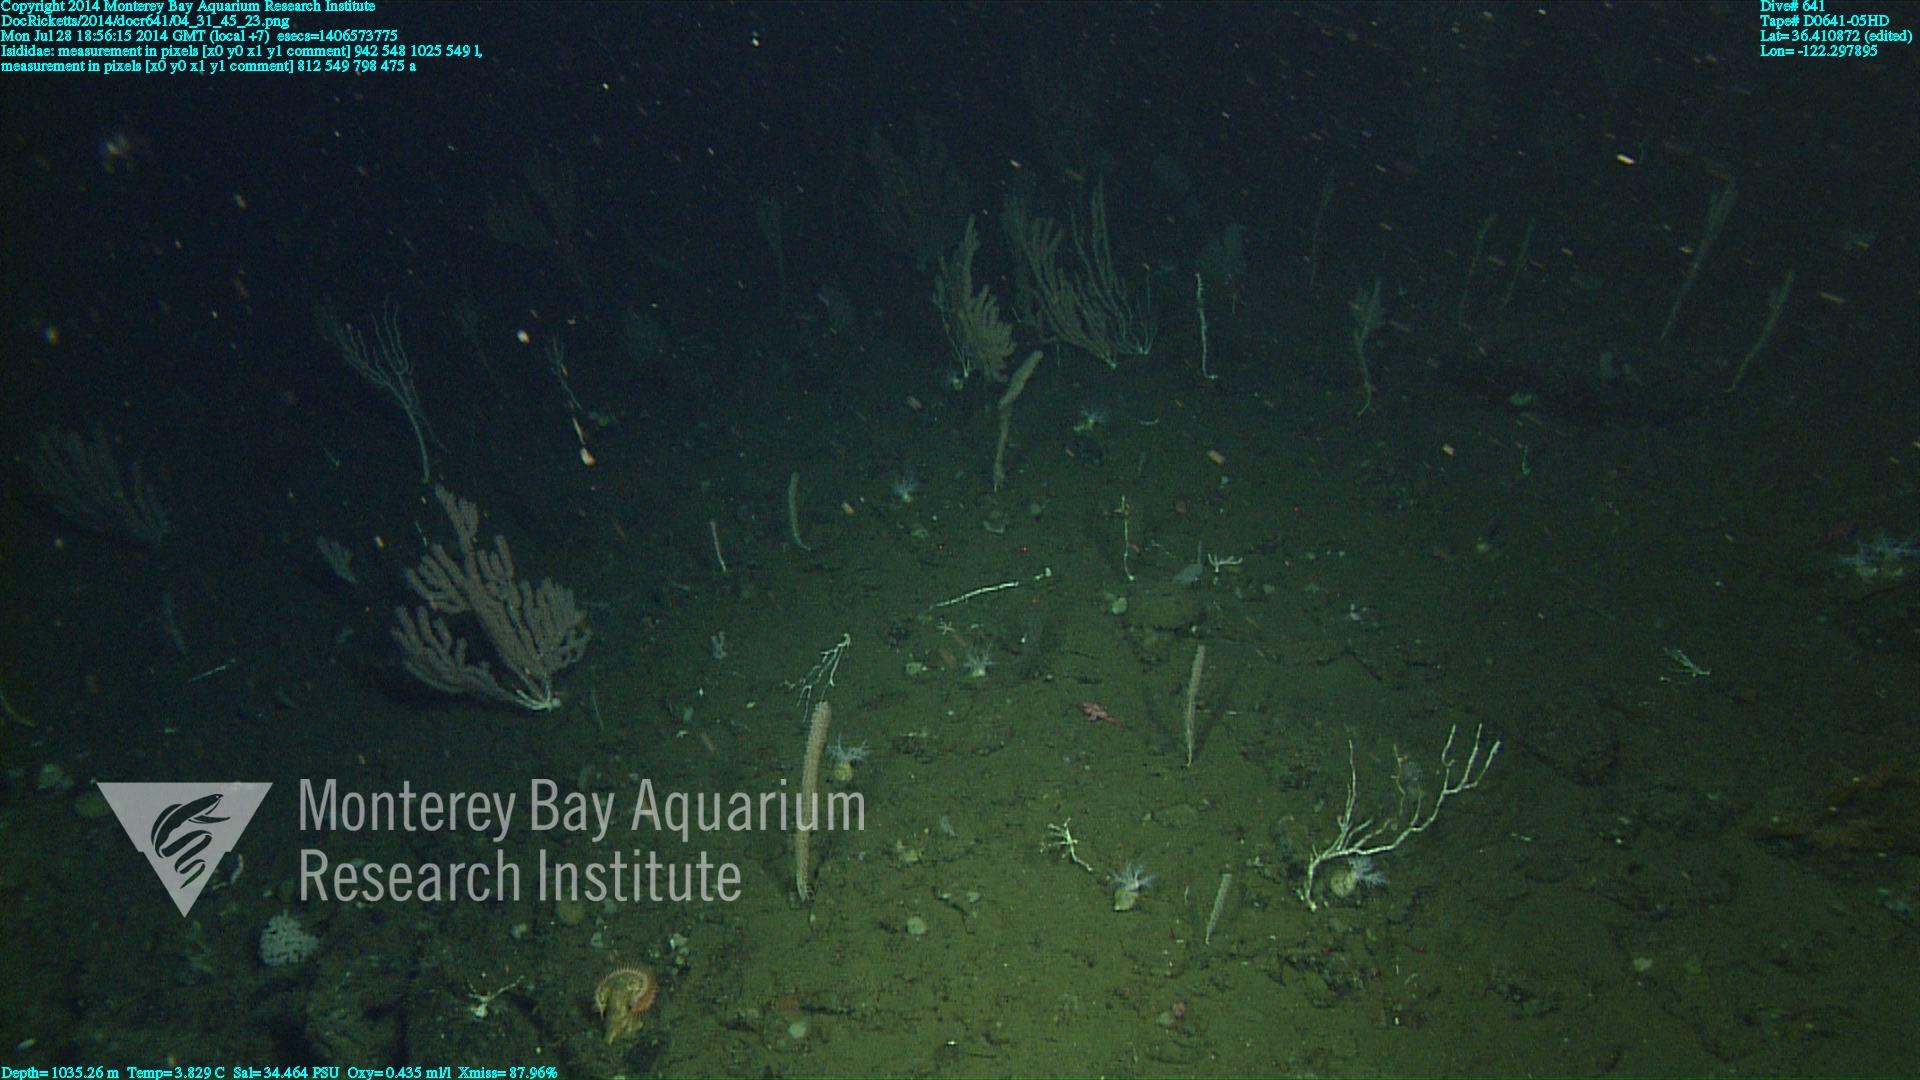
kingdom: Animalia
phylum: Cnidaria
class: Anthozoa
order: Scleralcyonacea
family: Keratoisididae
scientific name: Keratoisididae
